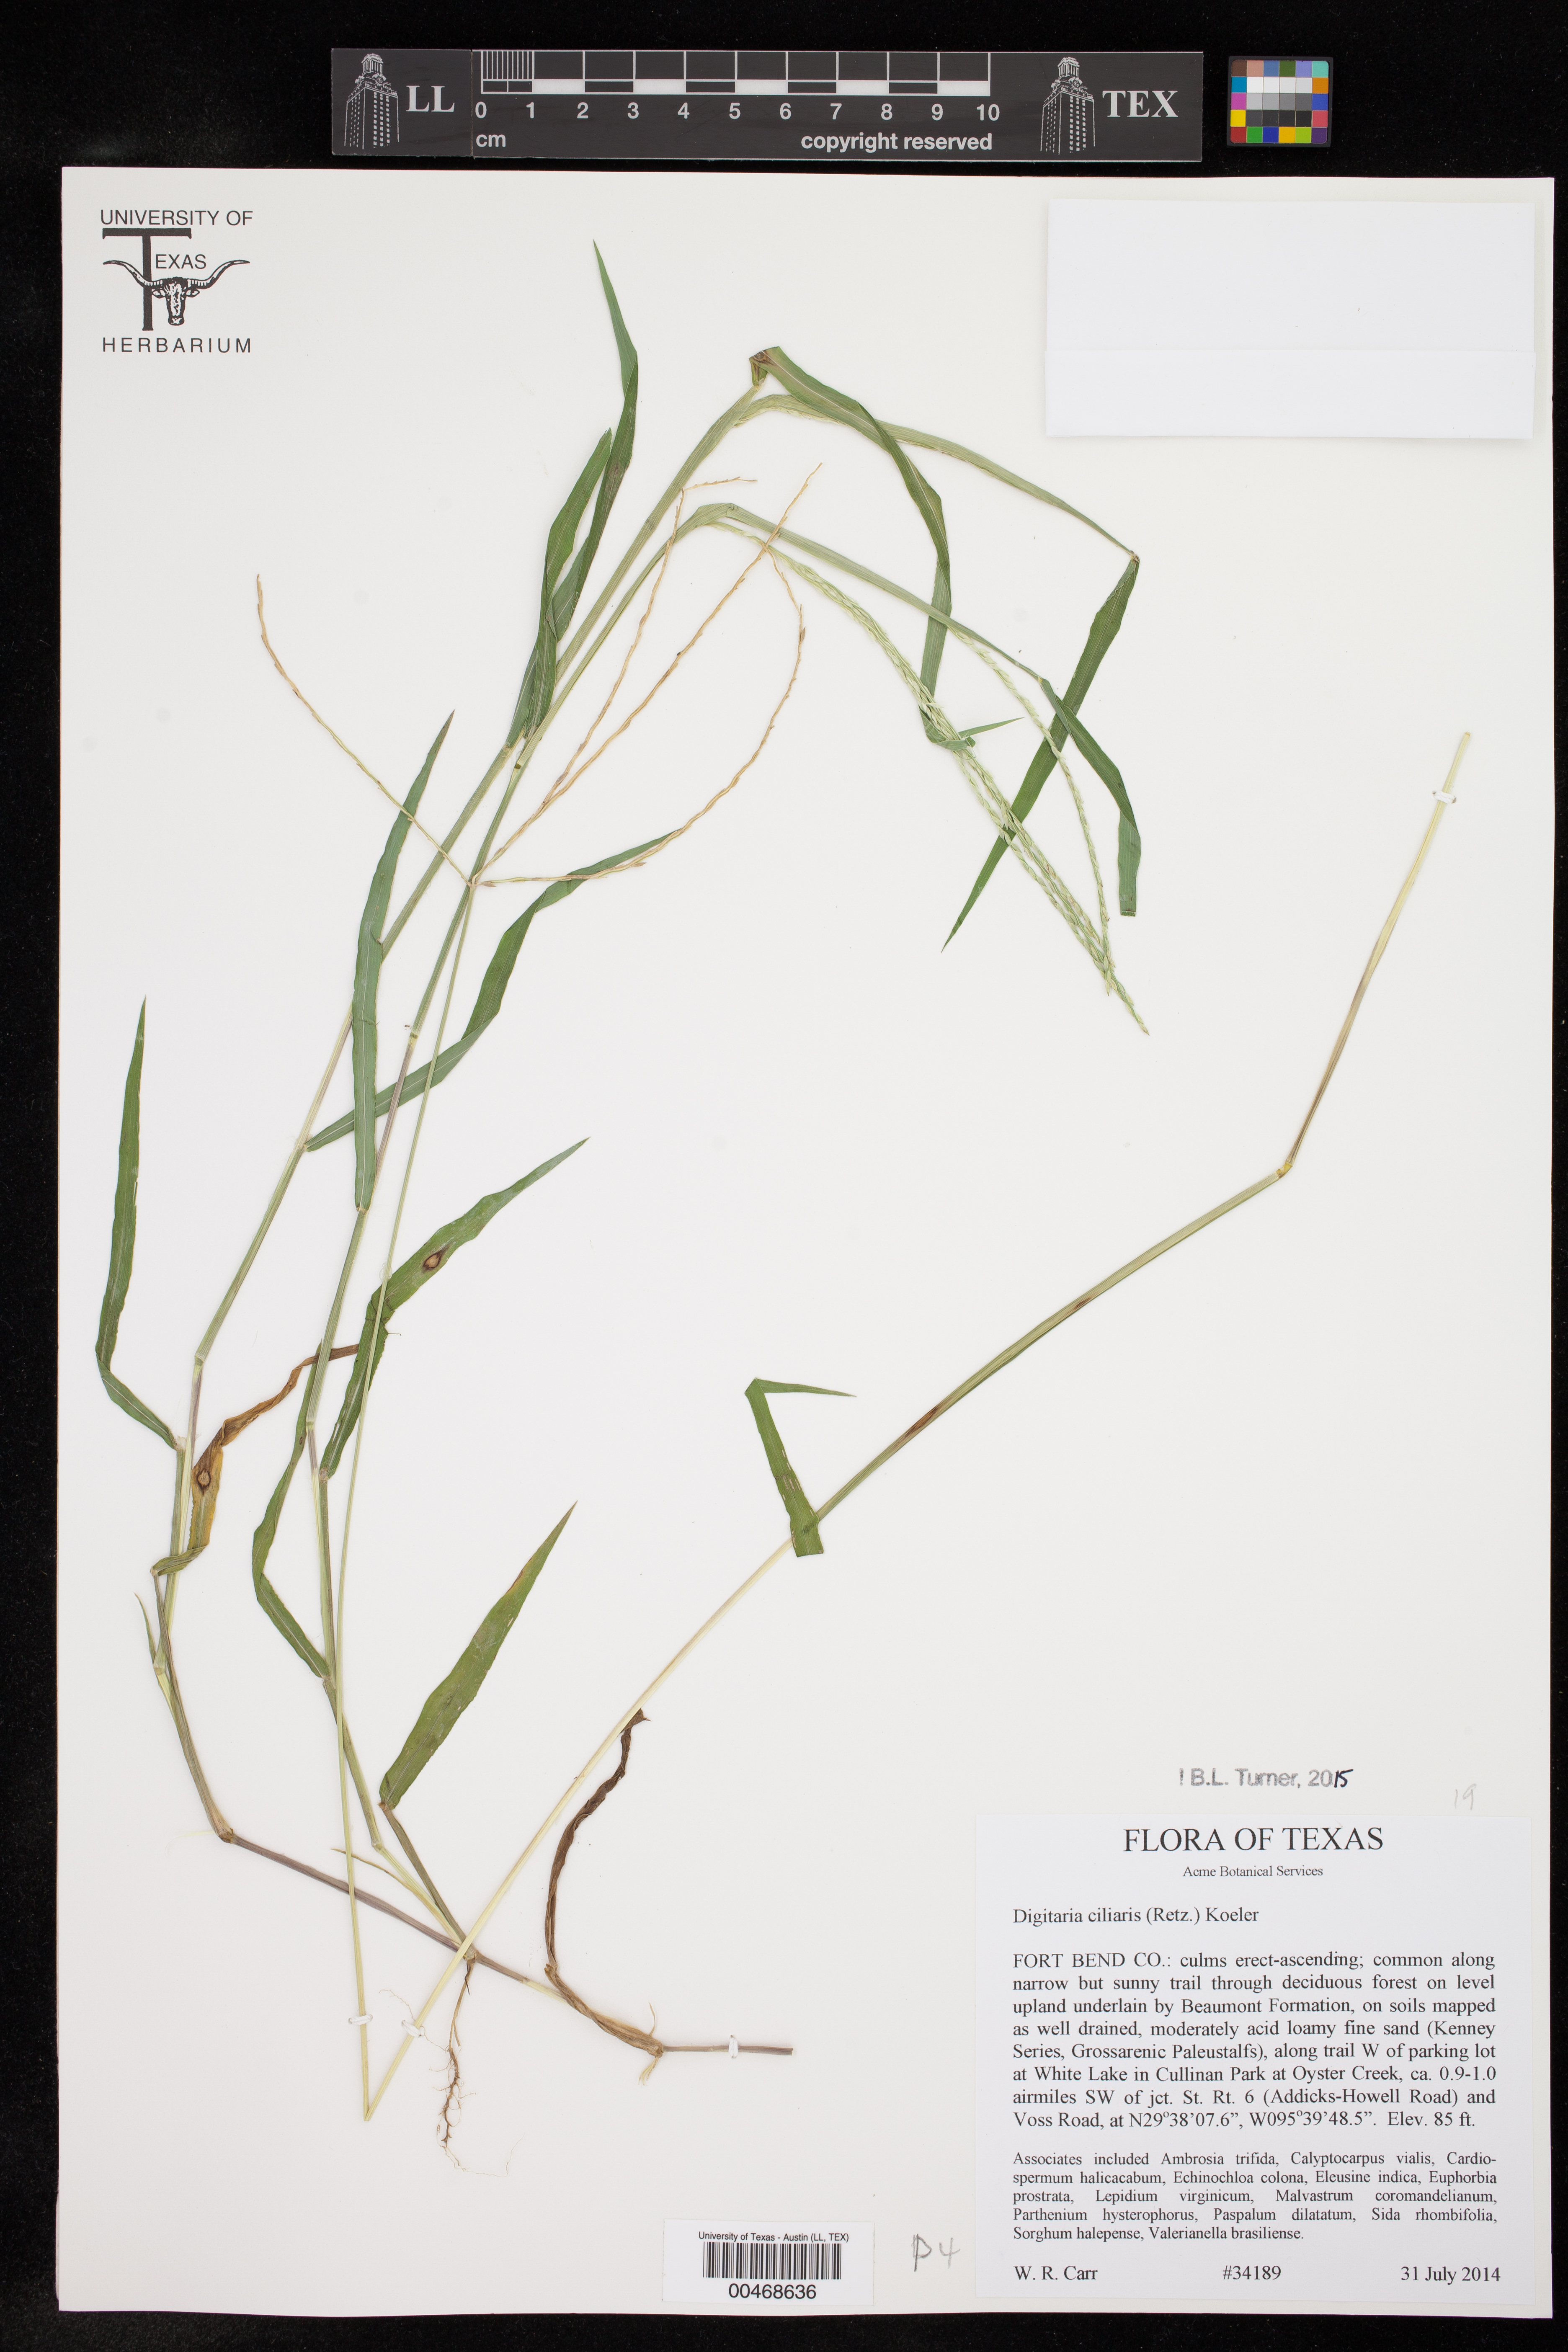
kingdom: Plantae
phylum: Tracheophyta
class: Liliopsida
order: Poales
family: Poaceae
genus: Digitaria
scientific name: Digitaria ciliaris
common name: Tropical finger-grass
